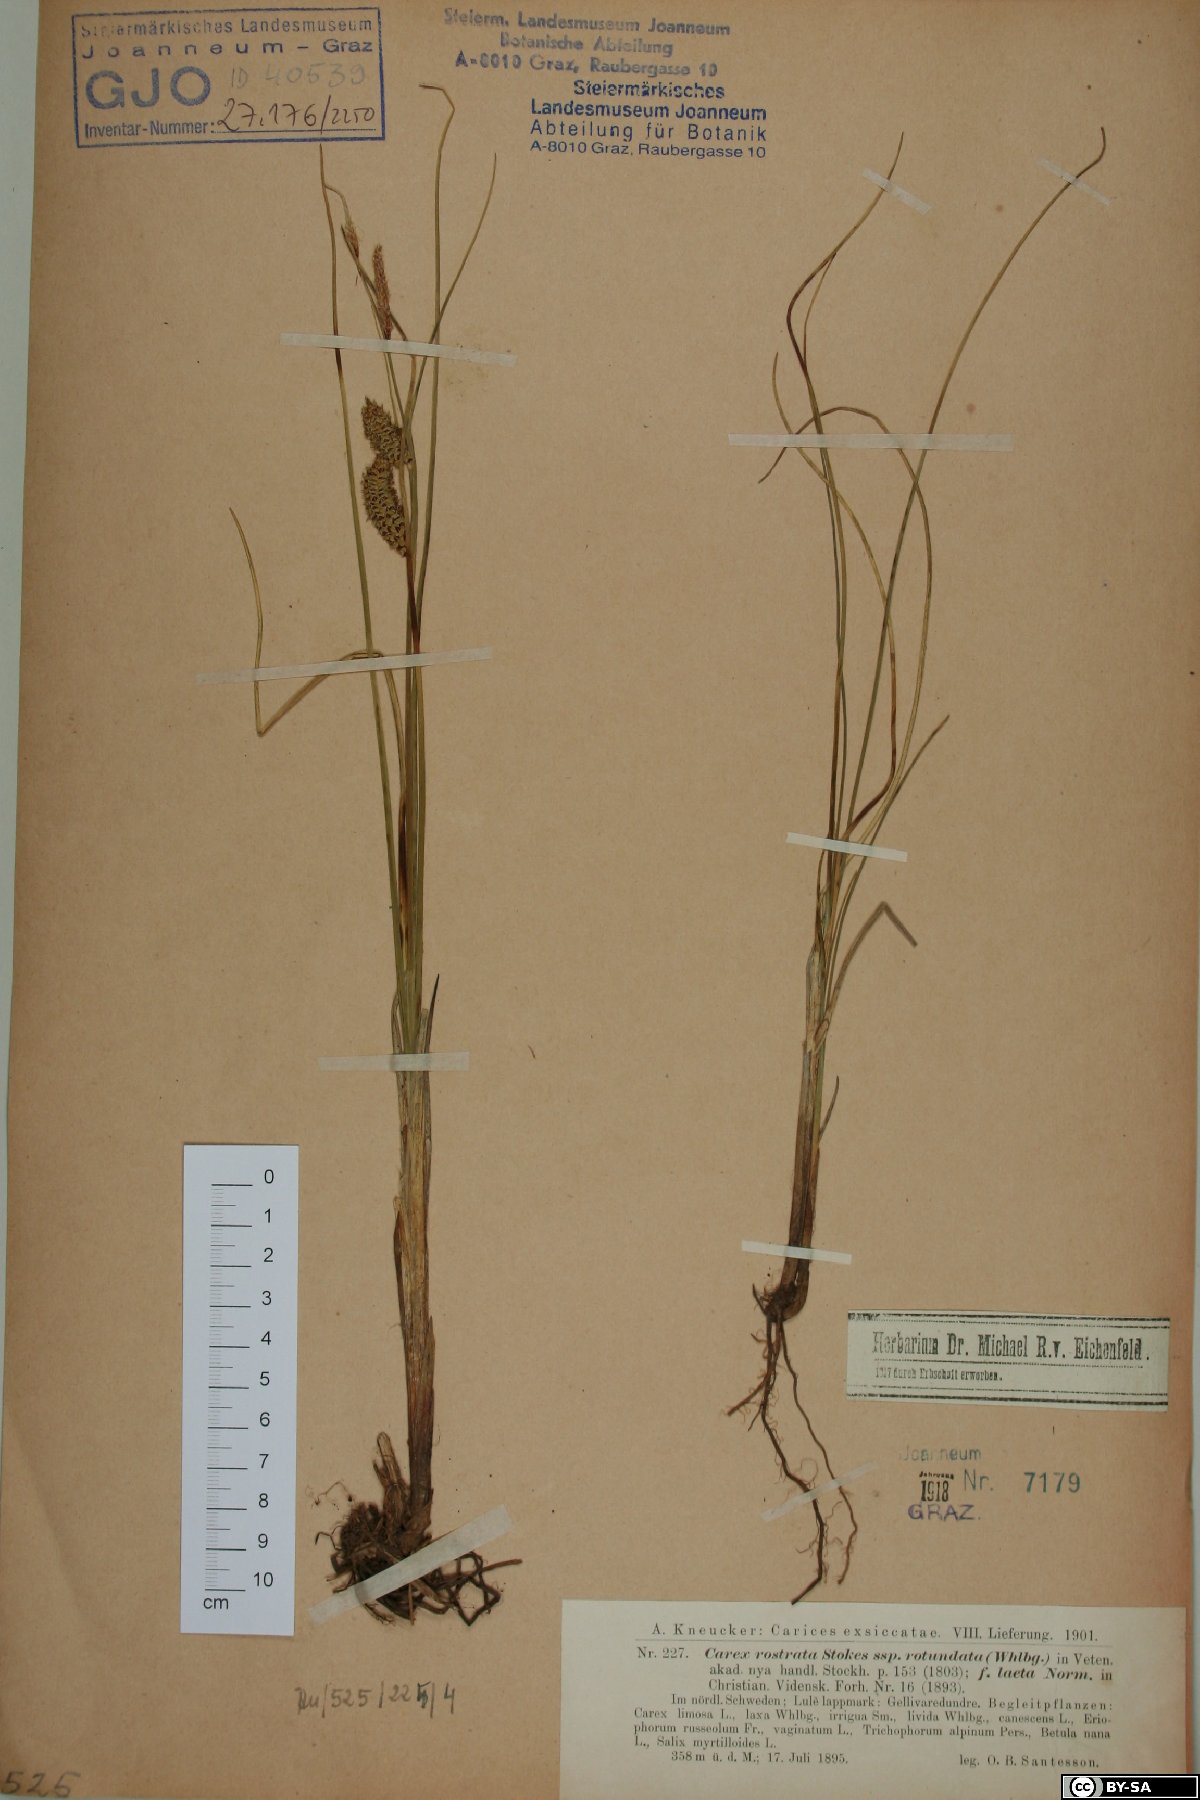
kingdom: Plantae
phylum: Tracheophyta
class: Liliopsida
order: Poales
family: Cyperaceae
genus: Carex
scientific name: Carex rotundata
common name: Round-fruited sedge
